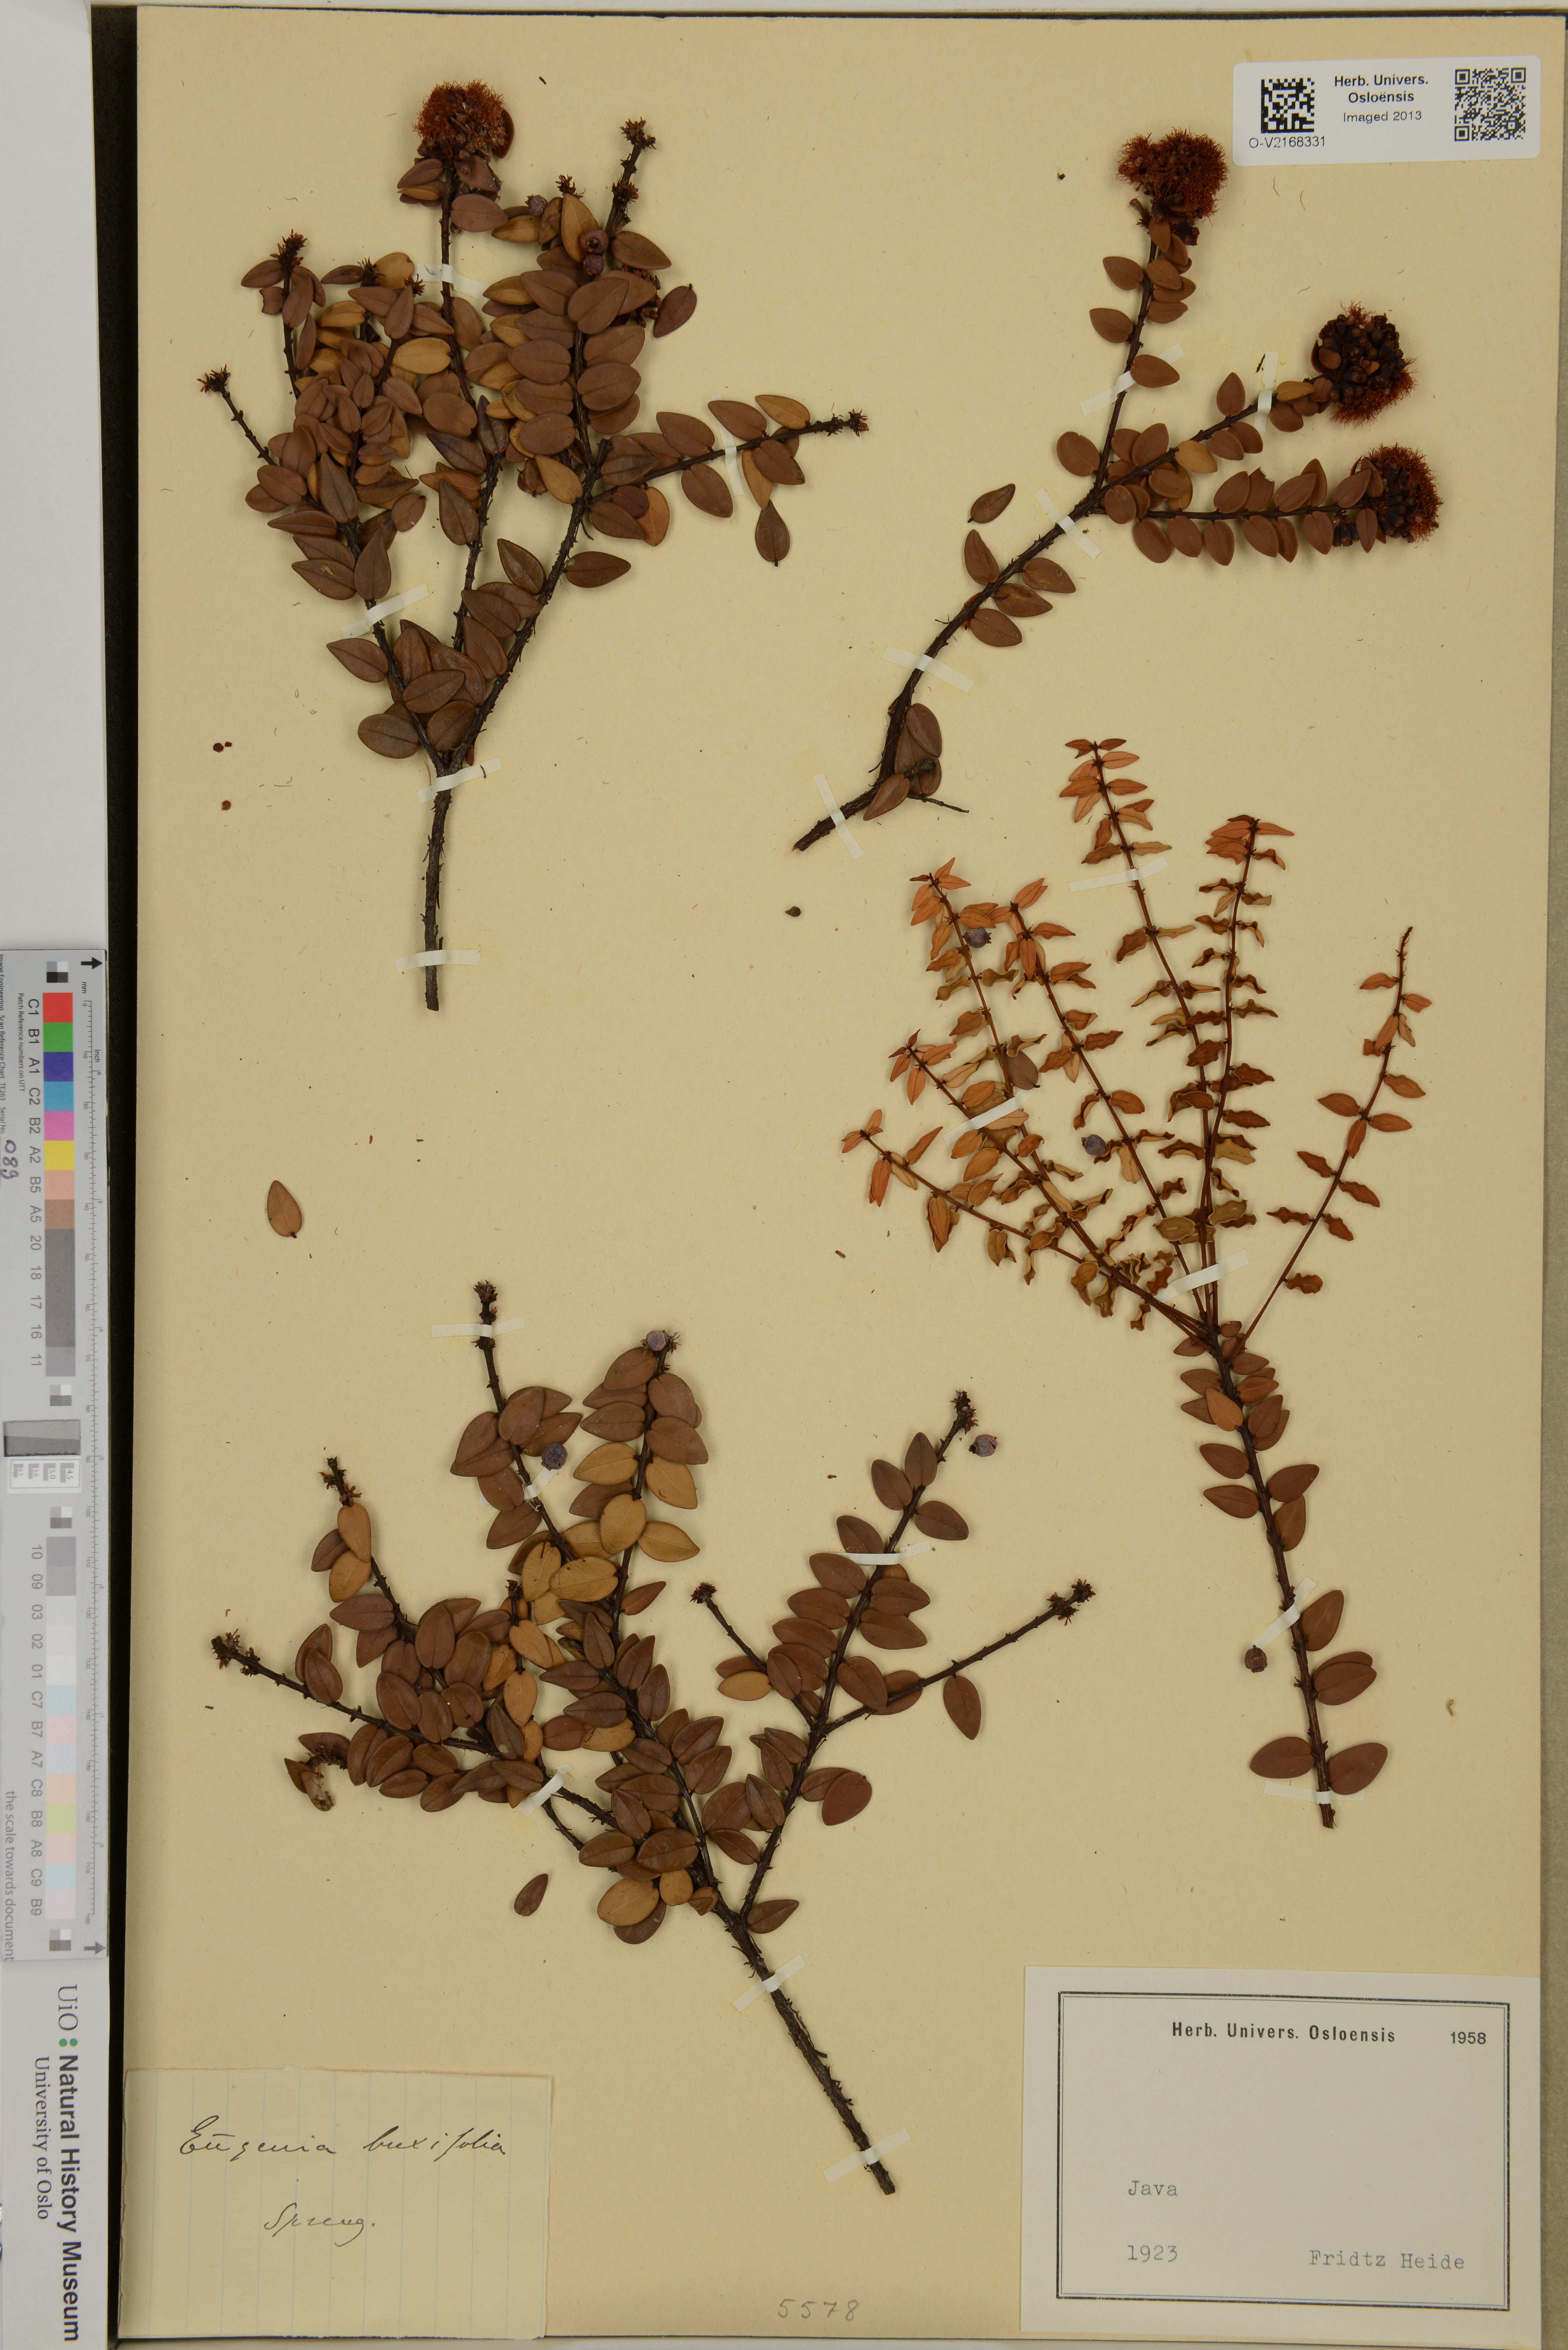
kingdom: Plantae
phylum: Tracheophyta
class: Magnoliopsida
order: Myrtales
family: Myrtaceae
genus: Eugenia
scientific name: Eugenia buxifolia
